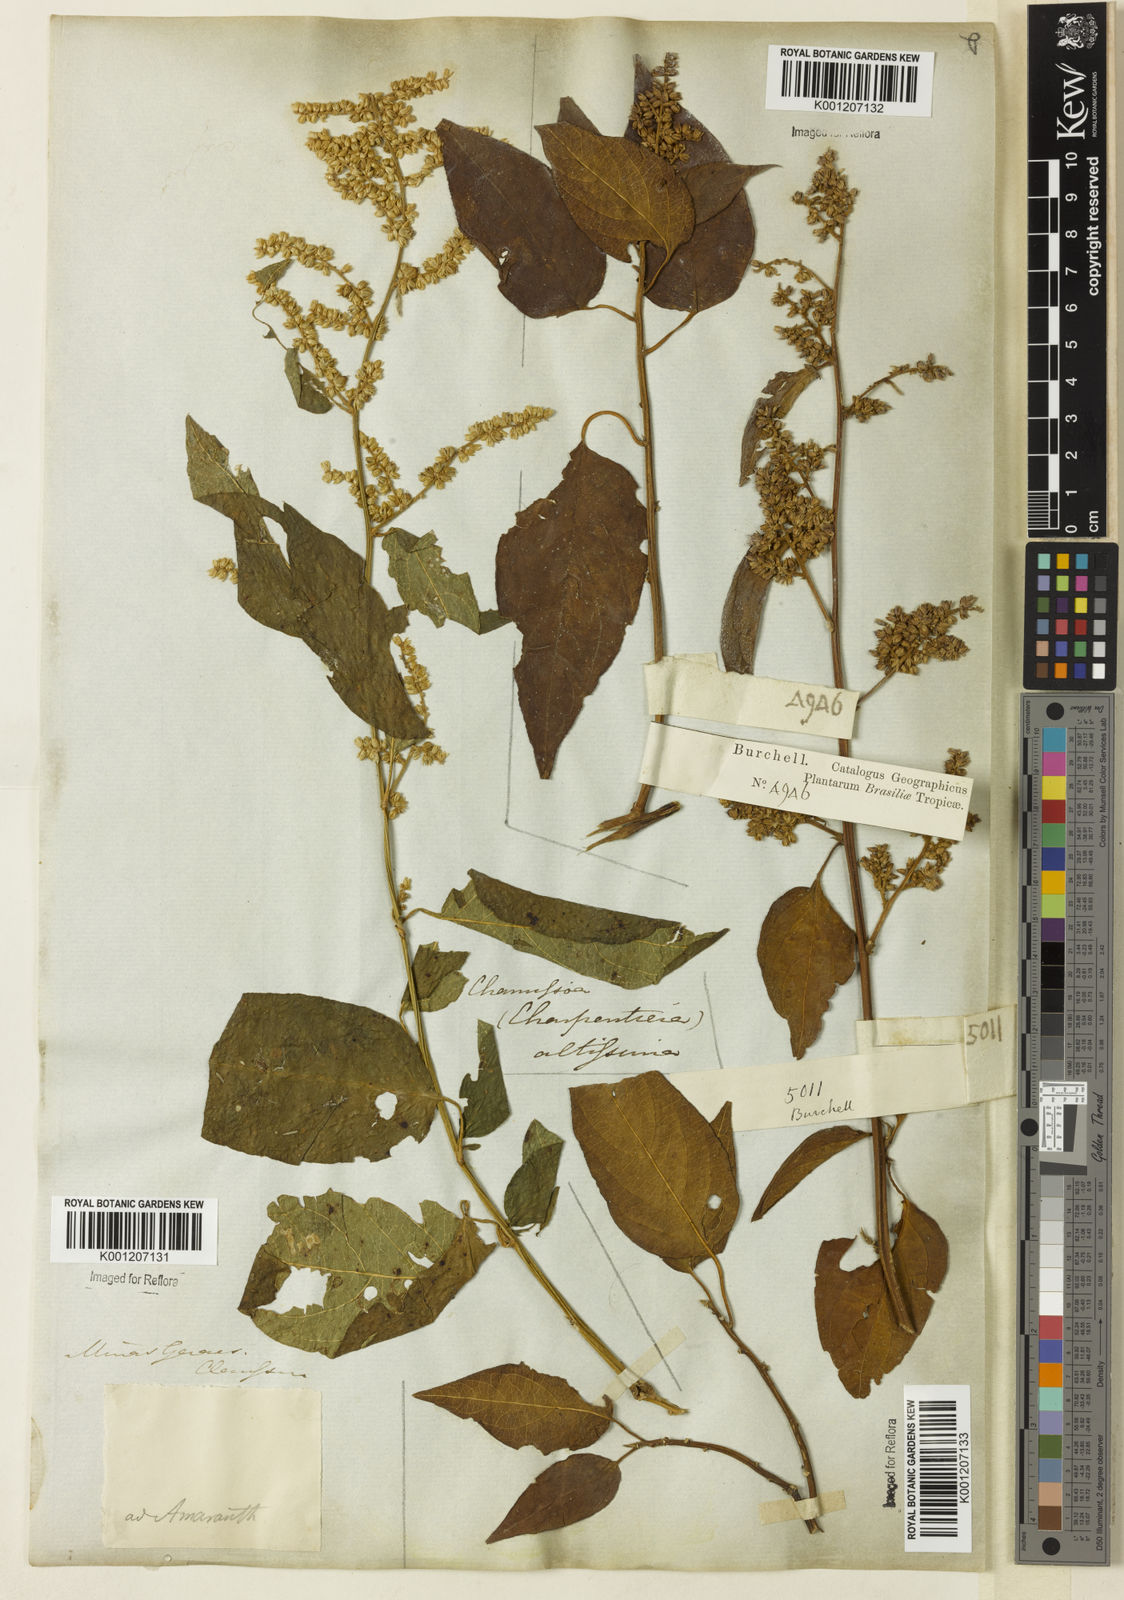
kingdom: Plantae
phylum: Tracheophyta
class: Magnoliopsida
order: Caryophyllales
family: Amaranthaceae
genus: Chamissoa
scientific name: Chamissoa altissima
